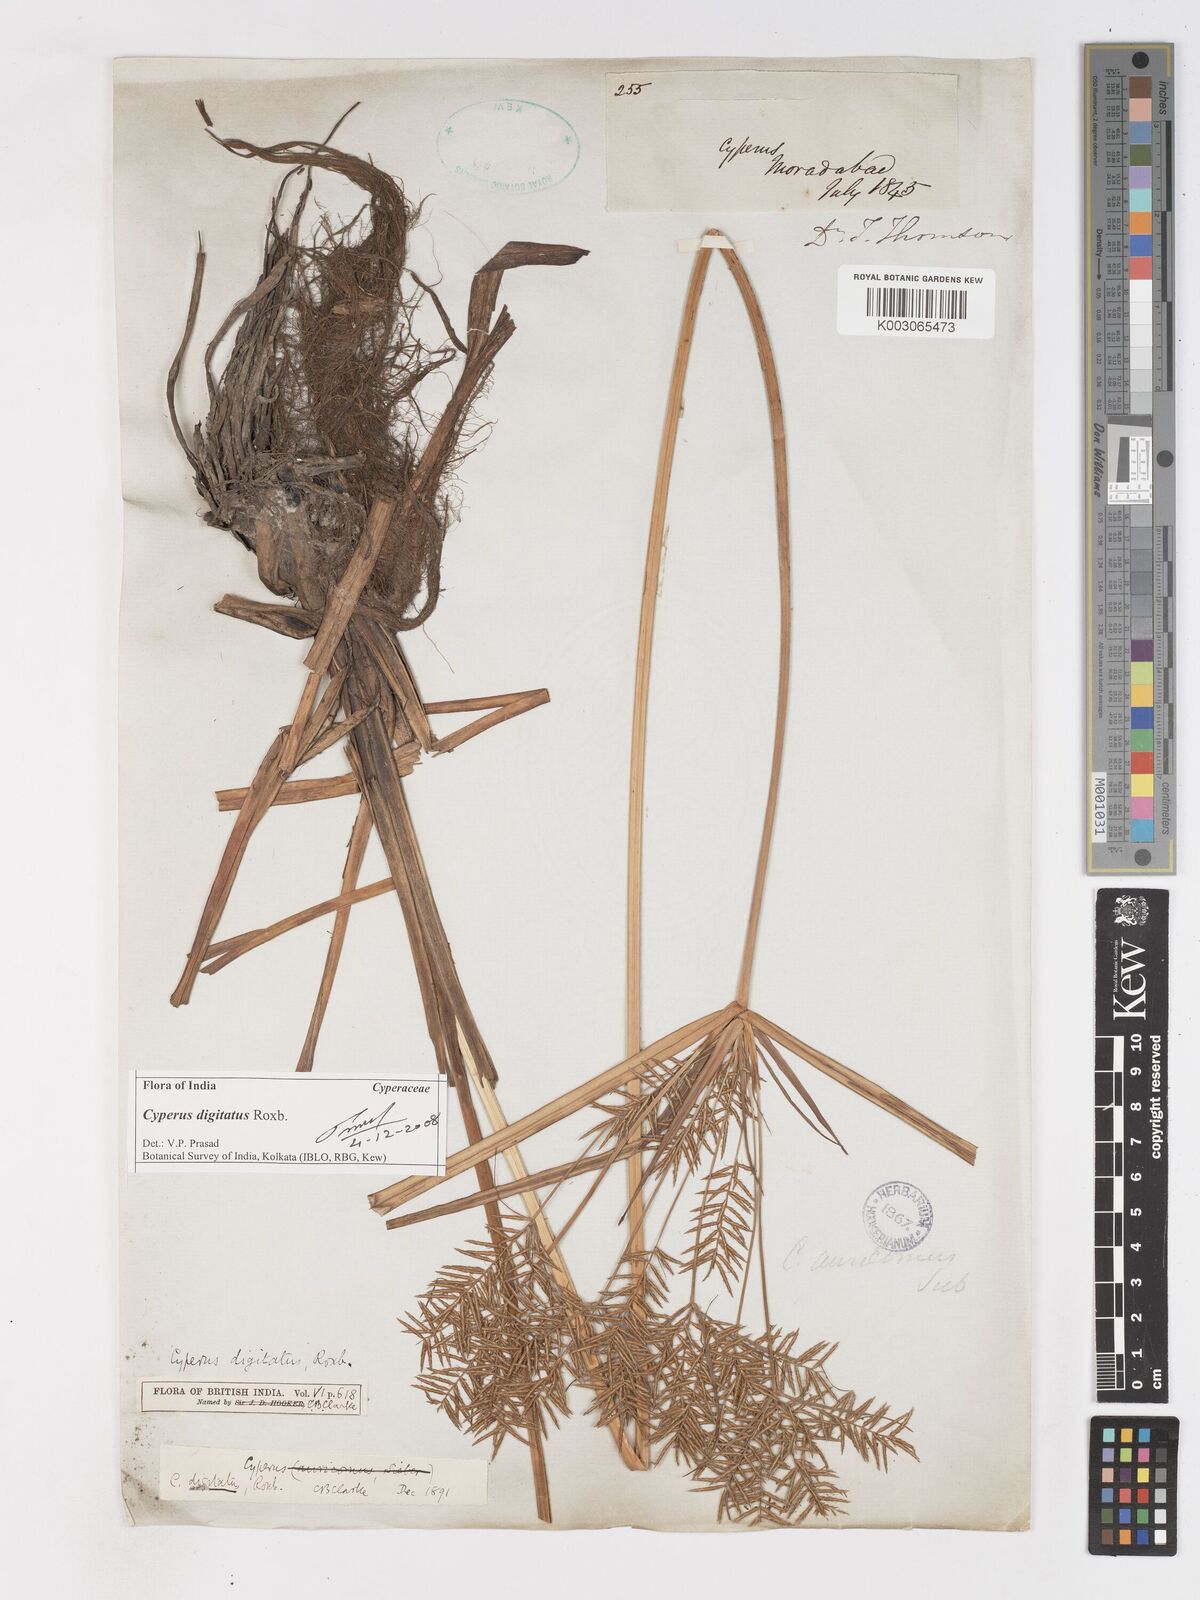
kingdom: Plantae
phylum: Tracheophyta
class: Liliopsida
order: Poales
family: Cyperaceae
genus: Cyperus
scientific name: Cyperus digitatus
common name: Finger flatsedge
